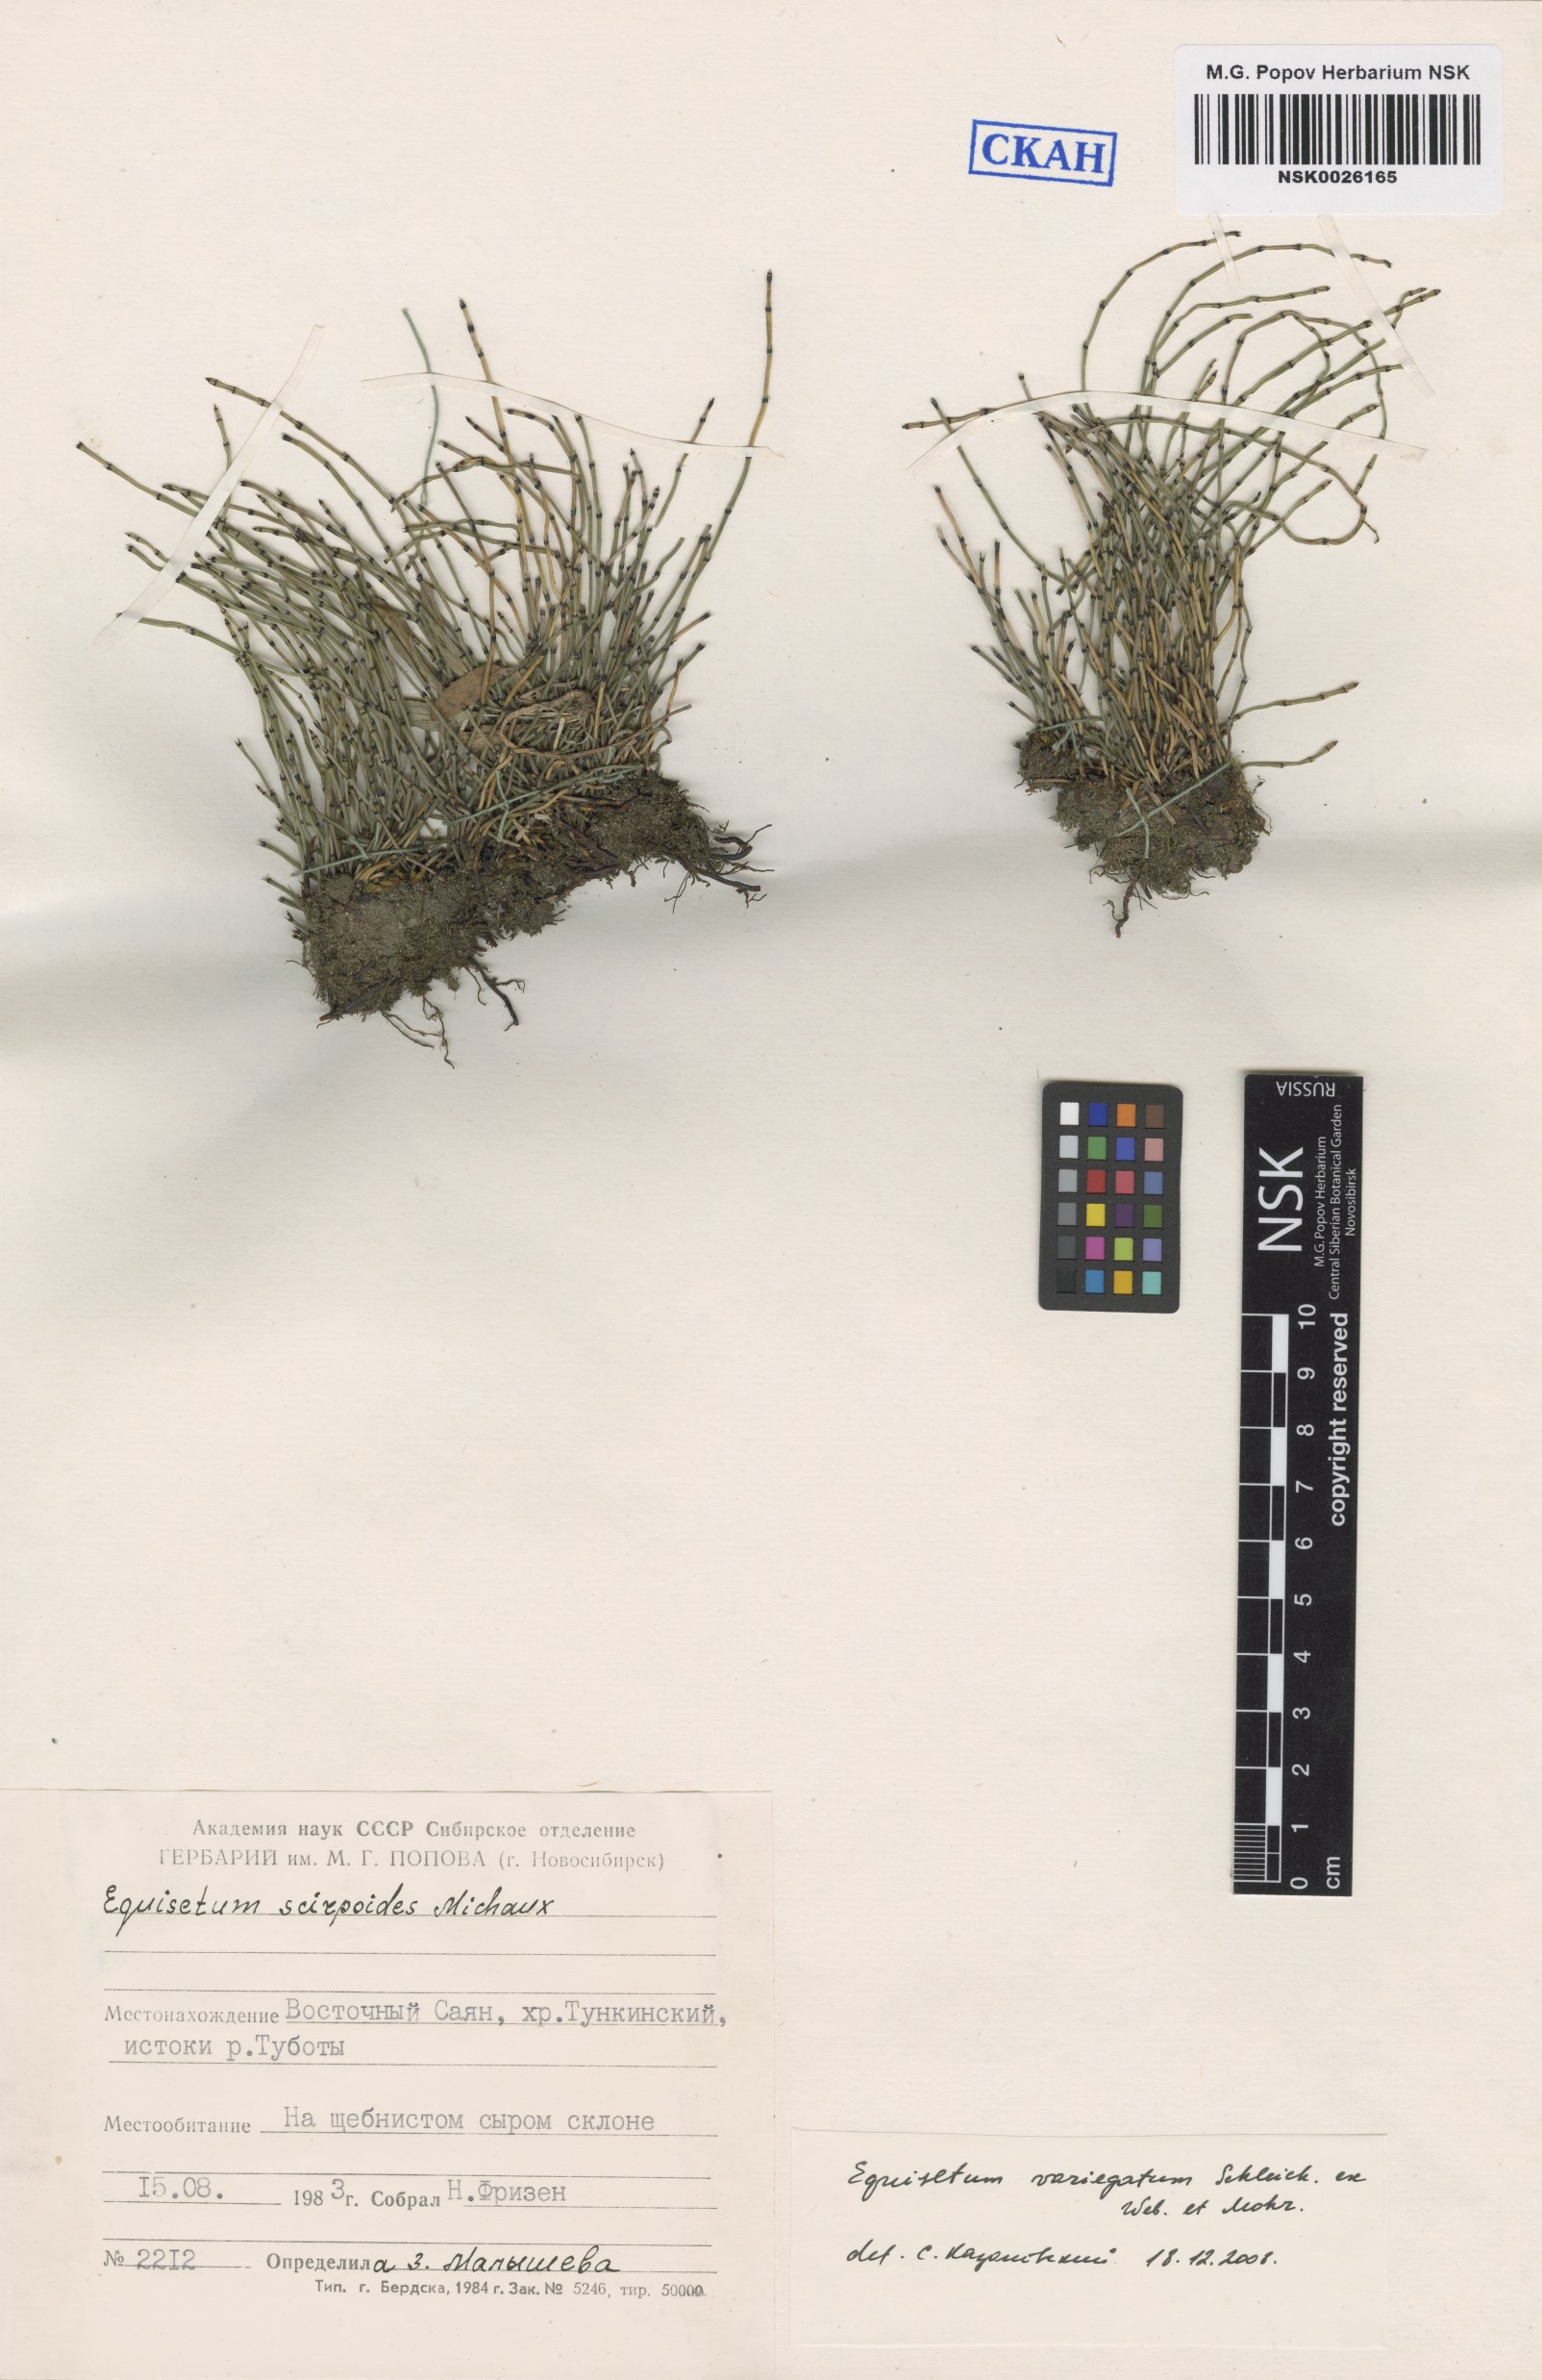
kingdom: Plantae
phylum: Tracheophyta
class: Polypodiopsida
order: Equisetales
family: Equisetaceae
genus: Equisetum
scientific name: Equisetum variegatum
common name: Variegated horsetail
